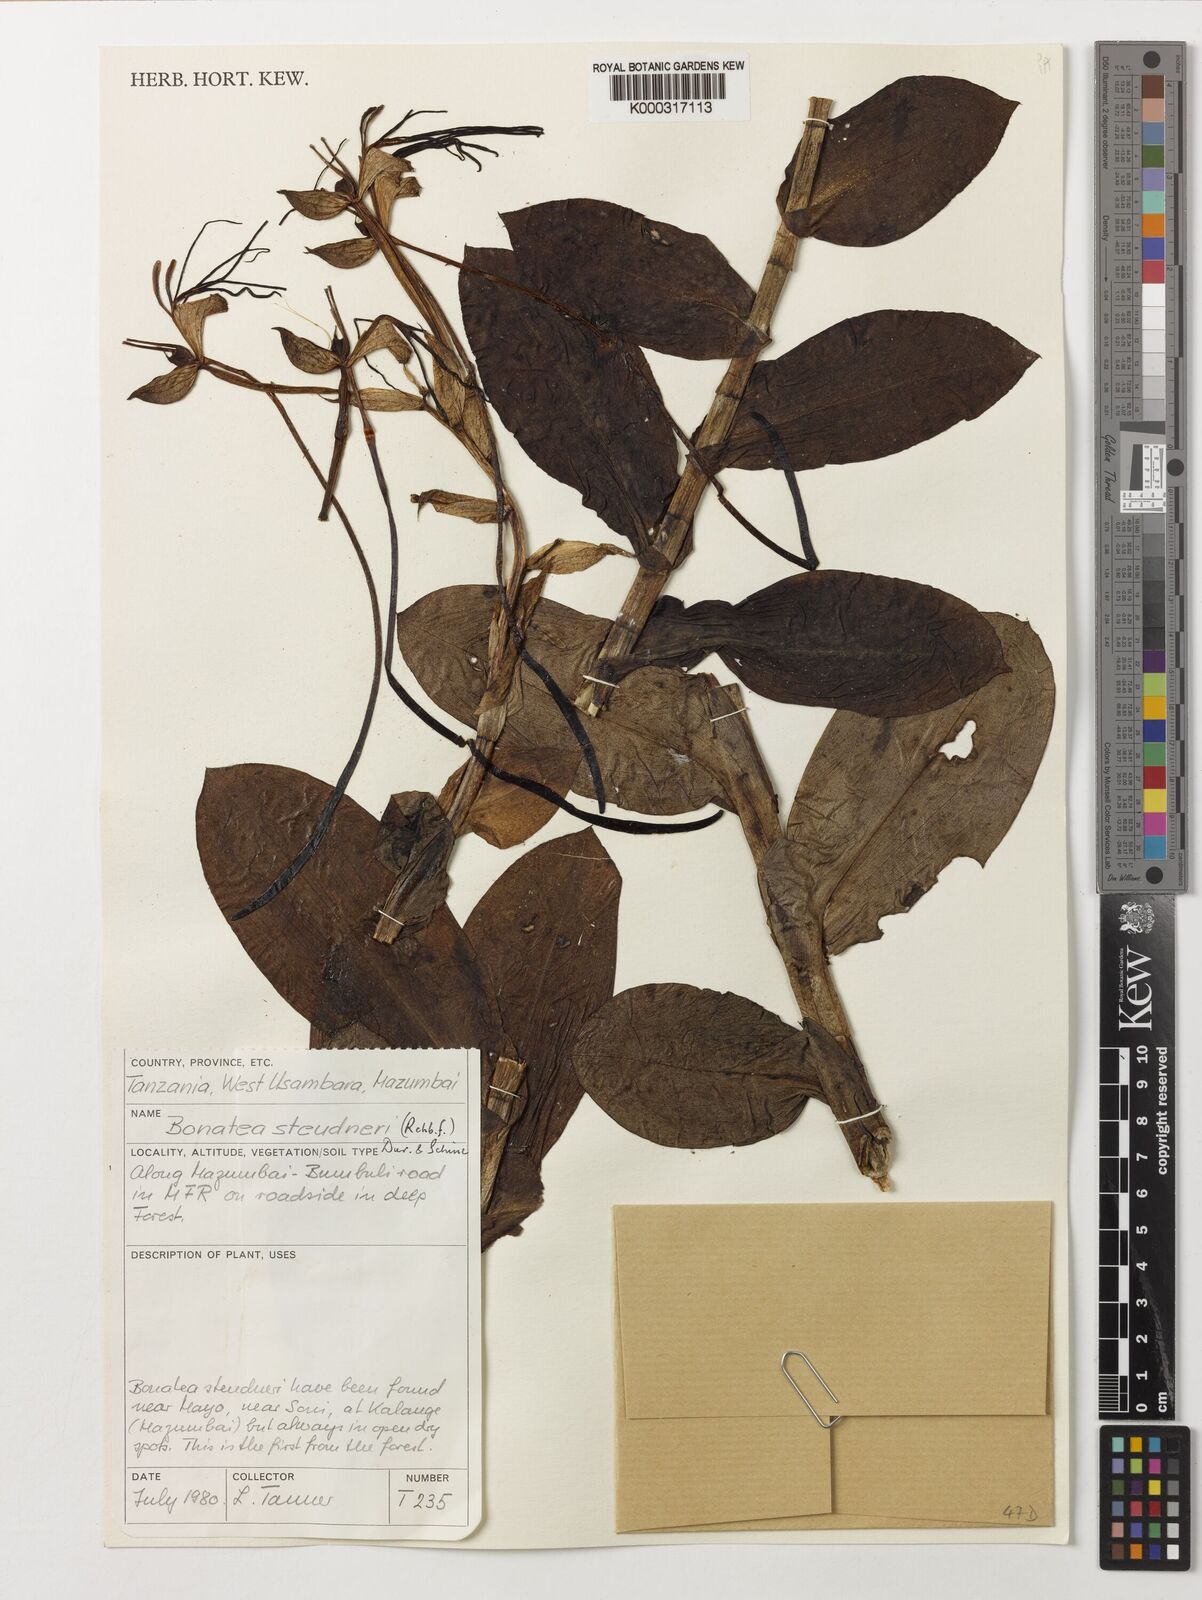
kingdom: Plantae
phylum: Tracheophyta
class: Liliopsida
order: Asparagales
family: Orchidaceae
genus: Bonatea
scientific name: Bonatea steudneri
